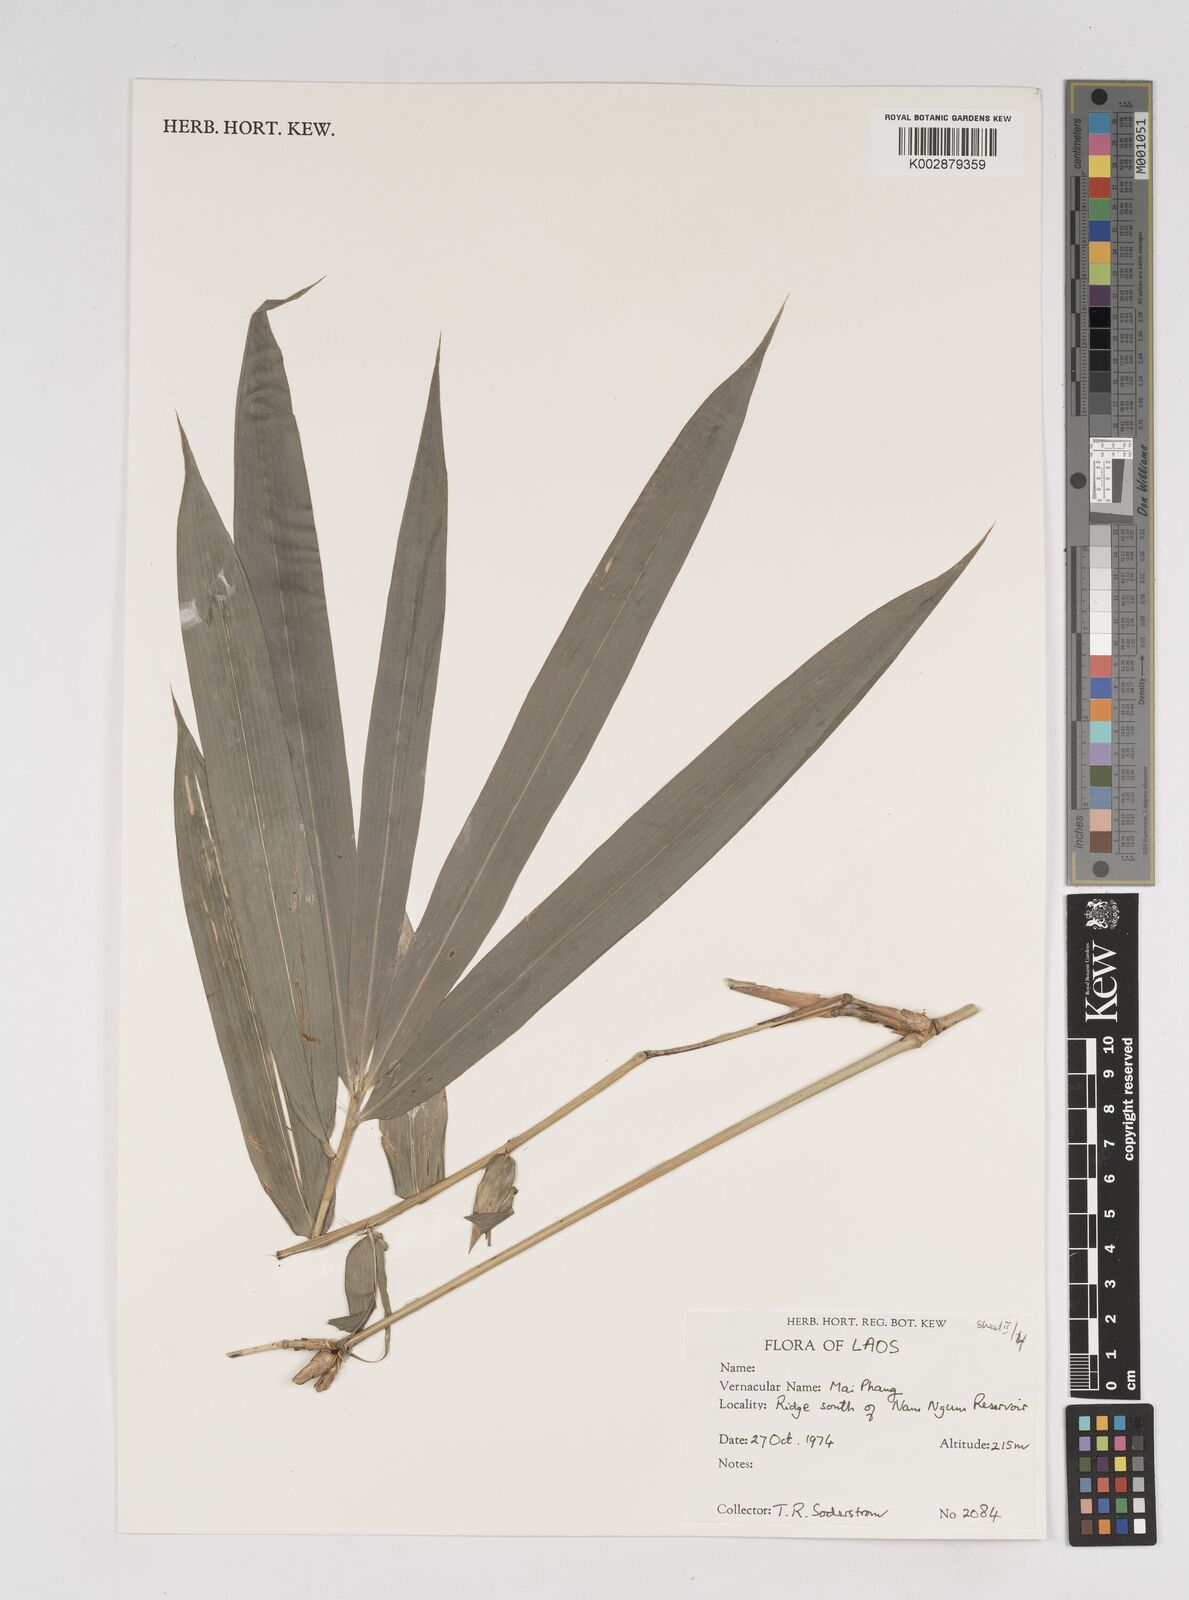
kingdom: Plantae
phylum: Tracheophyta
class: Liliopsida
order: Poales
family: Poaceae
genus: Dendrocalamus
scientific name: Dendrocalamus
